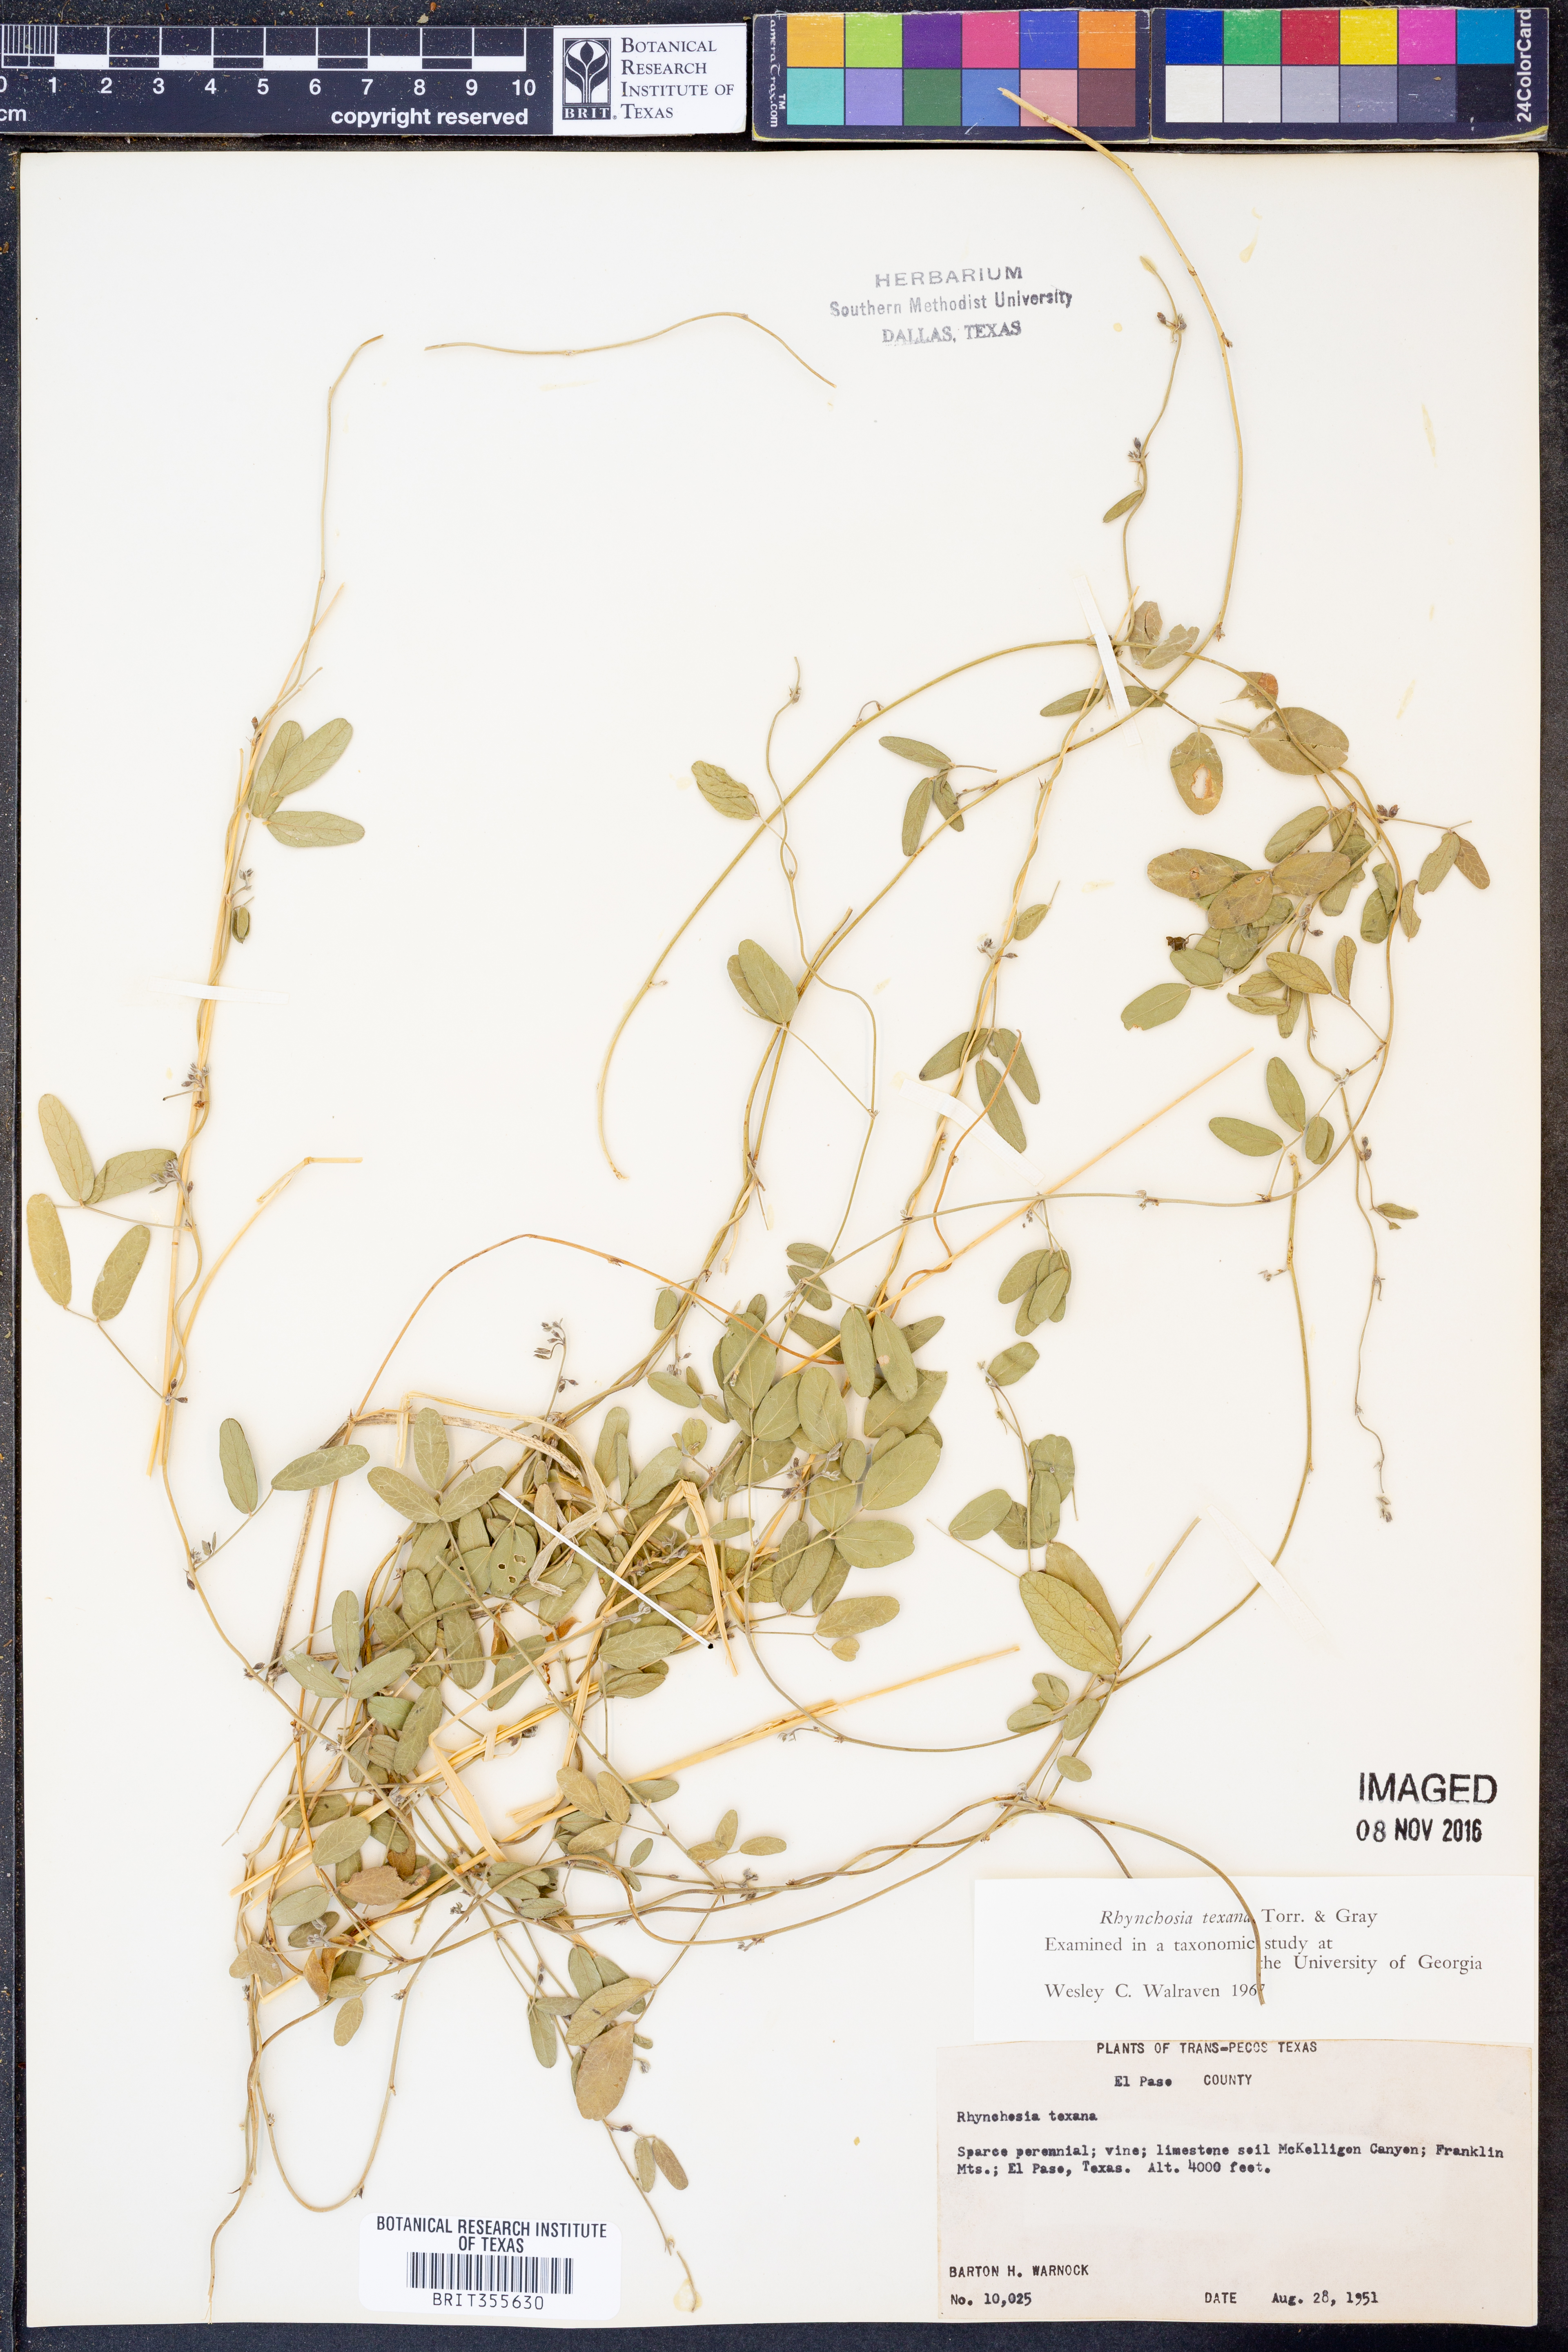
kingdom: Plantae
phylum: Tracheophyta
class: Magnoliopsida
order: Fabales
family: Fabaceae
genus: Rhynchosia
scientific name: Rhynchosia senna
